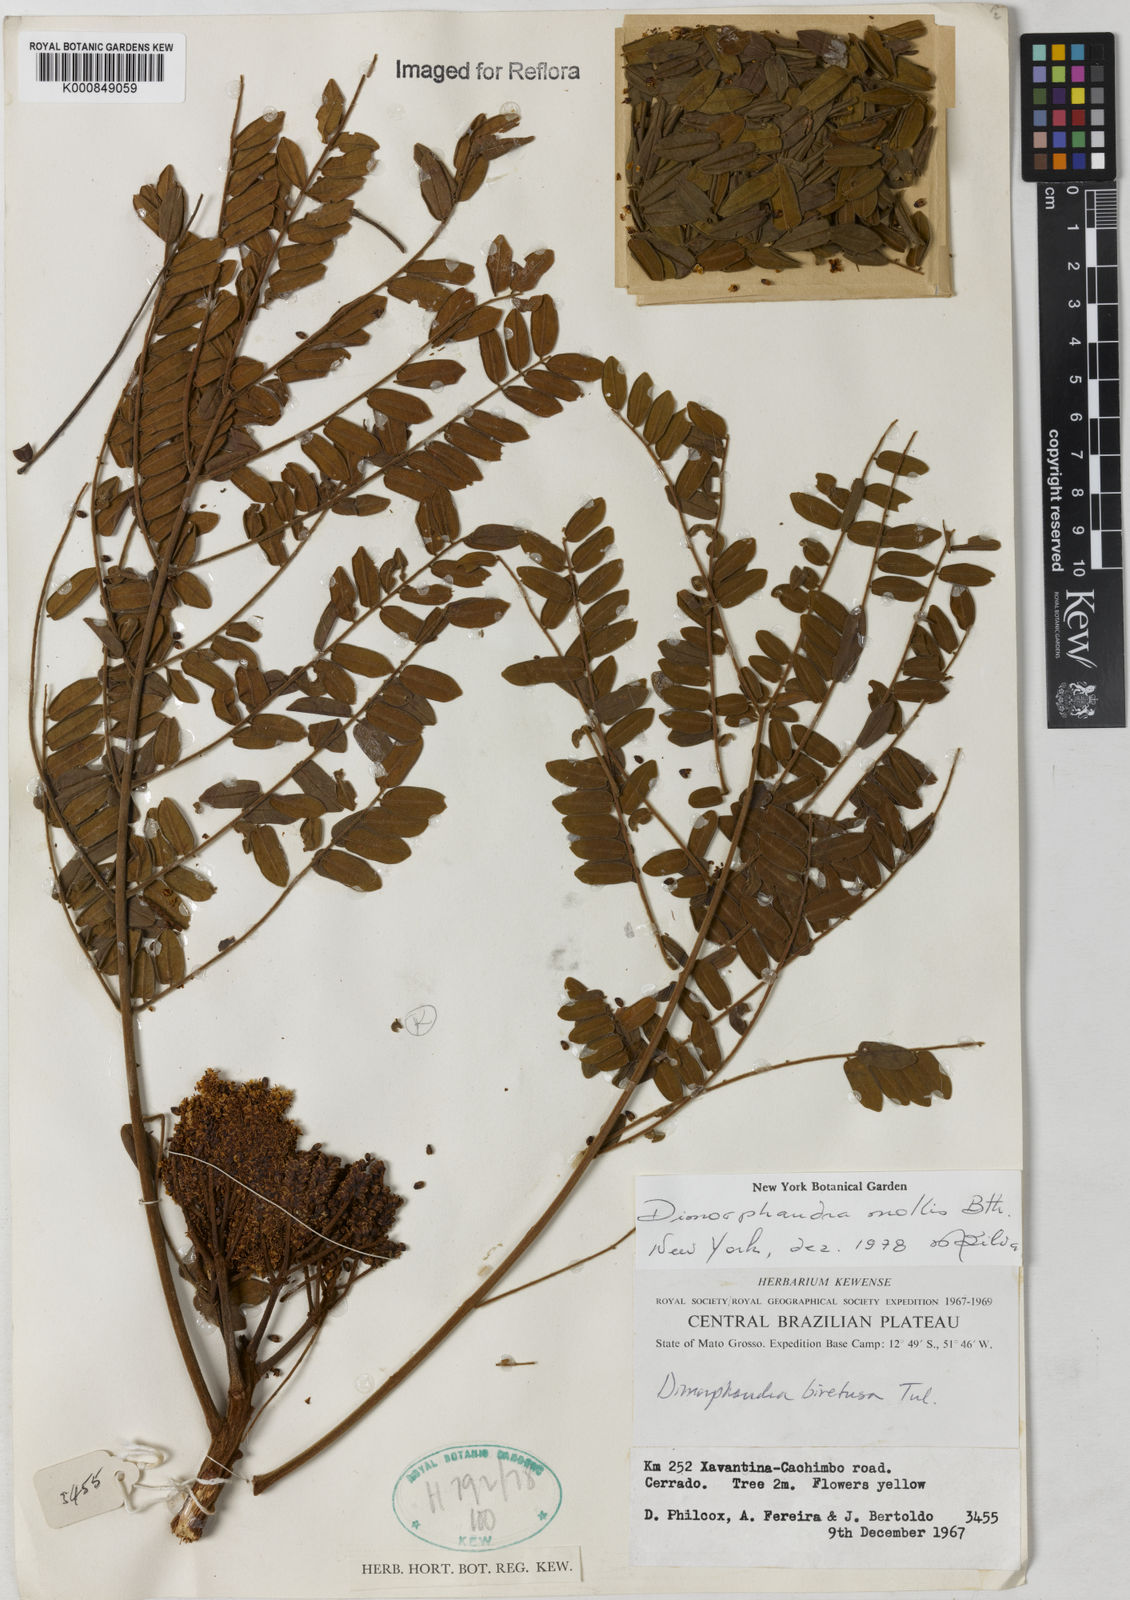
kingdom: Plantae
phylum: Tracheophyta
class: Magnoliopsida
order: Fabales
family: Fabaceae
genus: Dimorphandra
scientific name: Dimorphandra mollis
